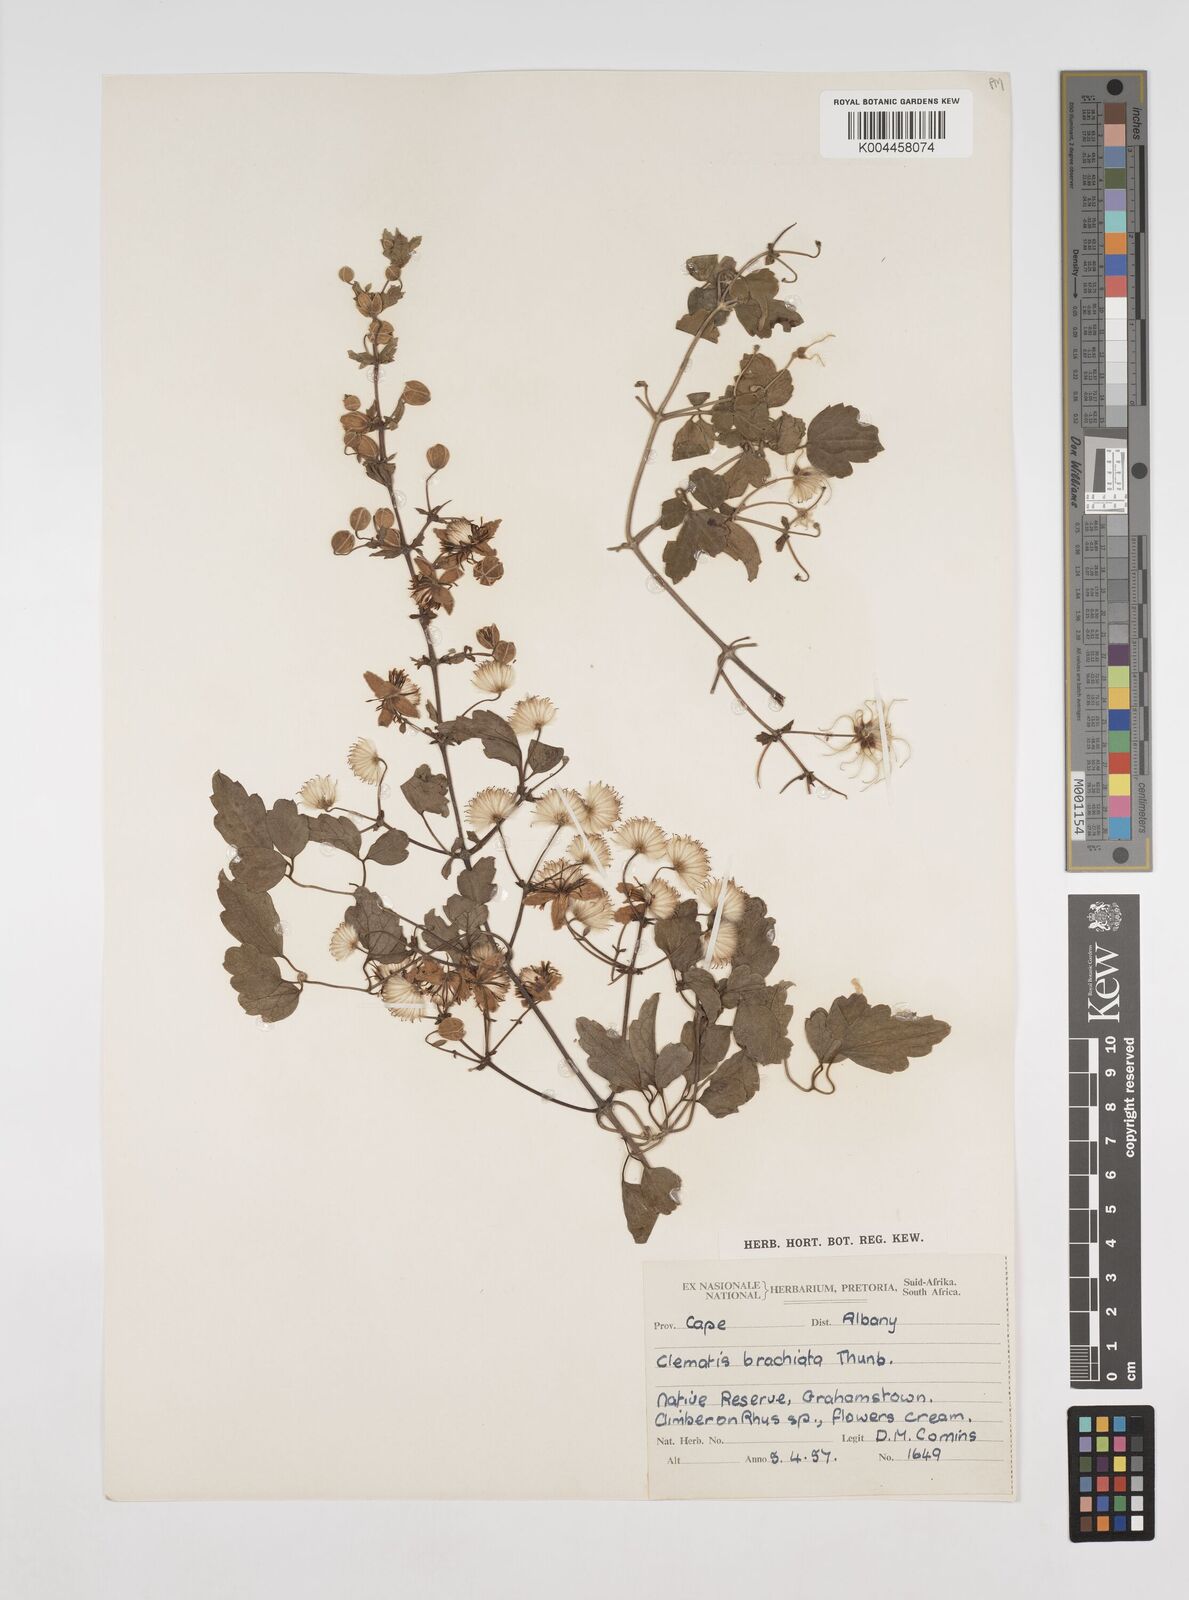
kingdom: Plantae
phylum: Tracheophyta
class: Magnoliopsida
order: Ranunculales
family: Ranunculaceae
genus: Clematis
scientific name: Clematis brachiata
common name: Traveler's-joy
